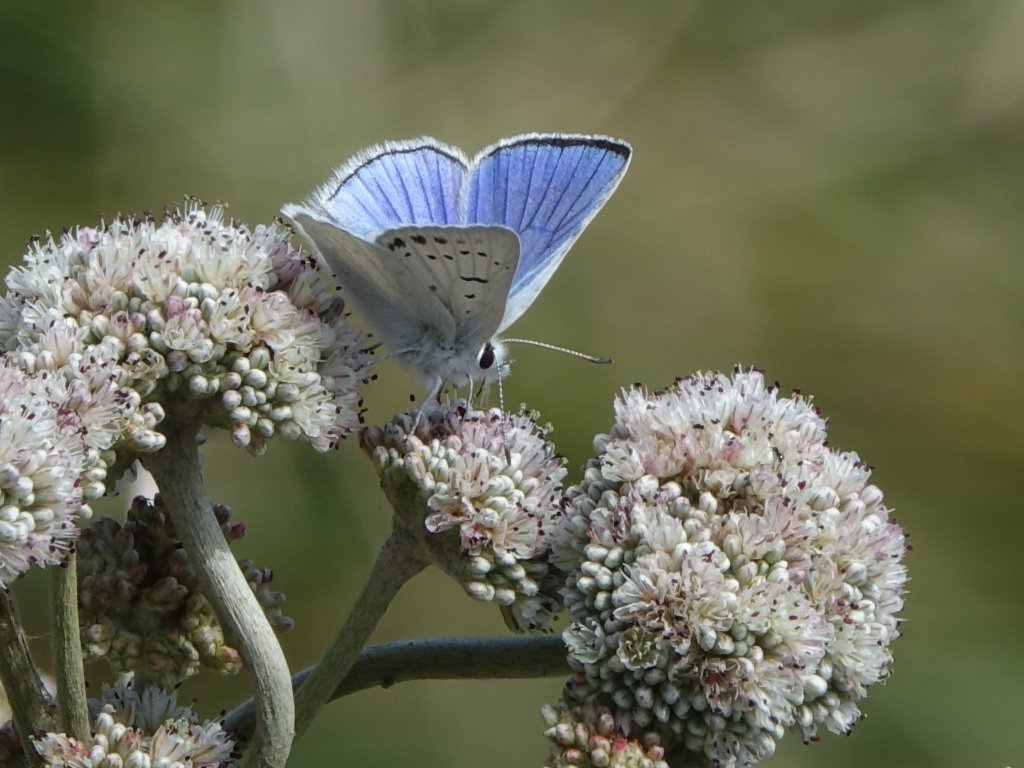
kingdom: Animalia
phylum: Arthropoda
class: Insecta
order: Lepidoptera
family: Lycaenidae
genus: Lycaena
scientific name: Lycaena heteronea
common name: Blue Copper
